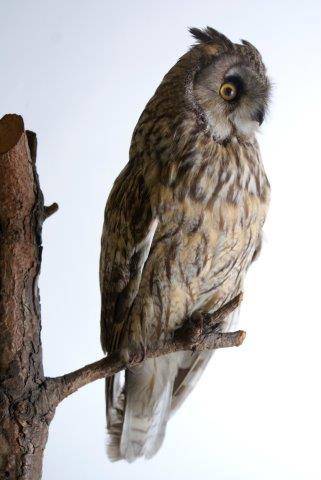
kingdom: Animalia
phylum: Chordata
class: Aves
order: Strigiformes
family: Strigidae
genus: Asio
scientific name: Asio otus
